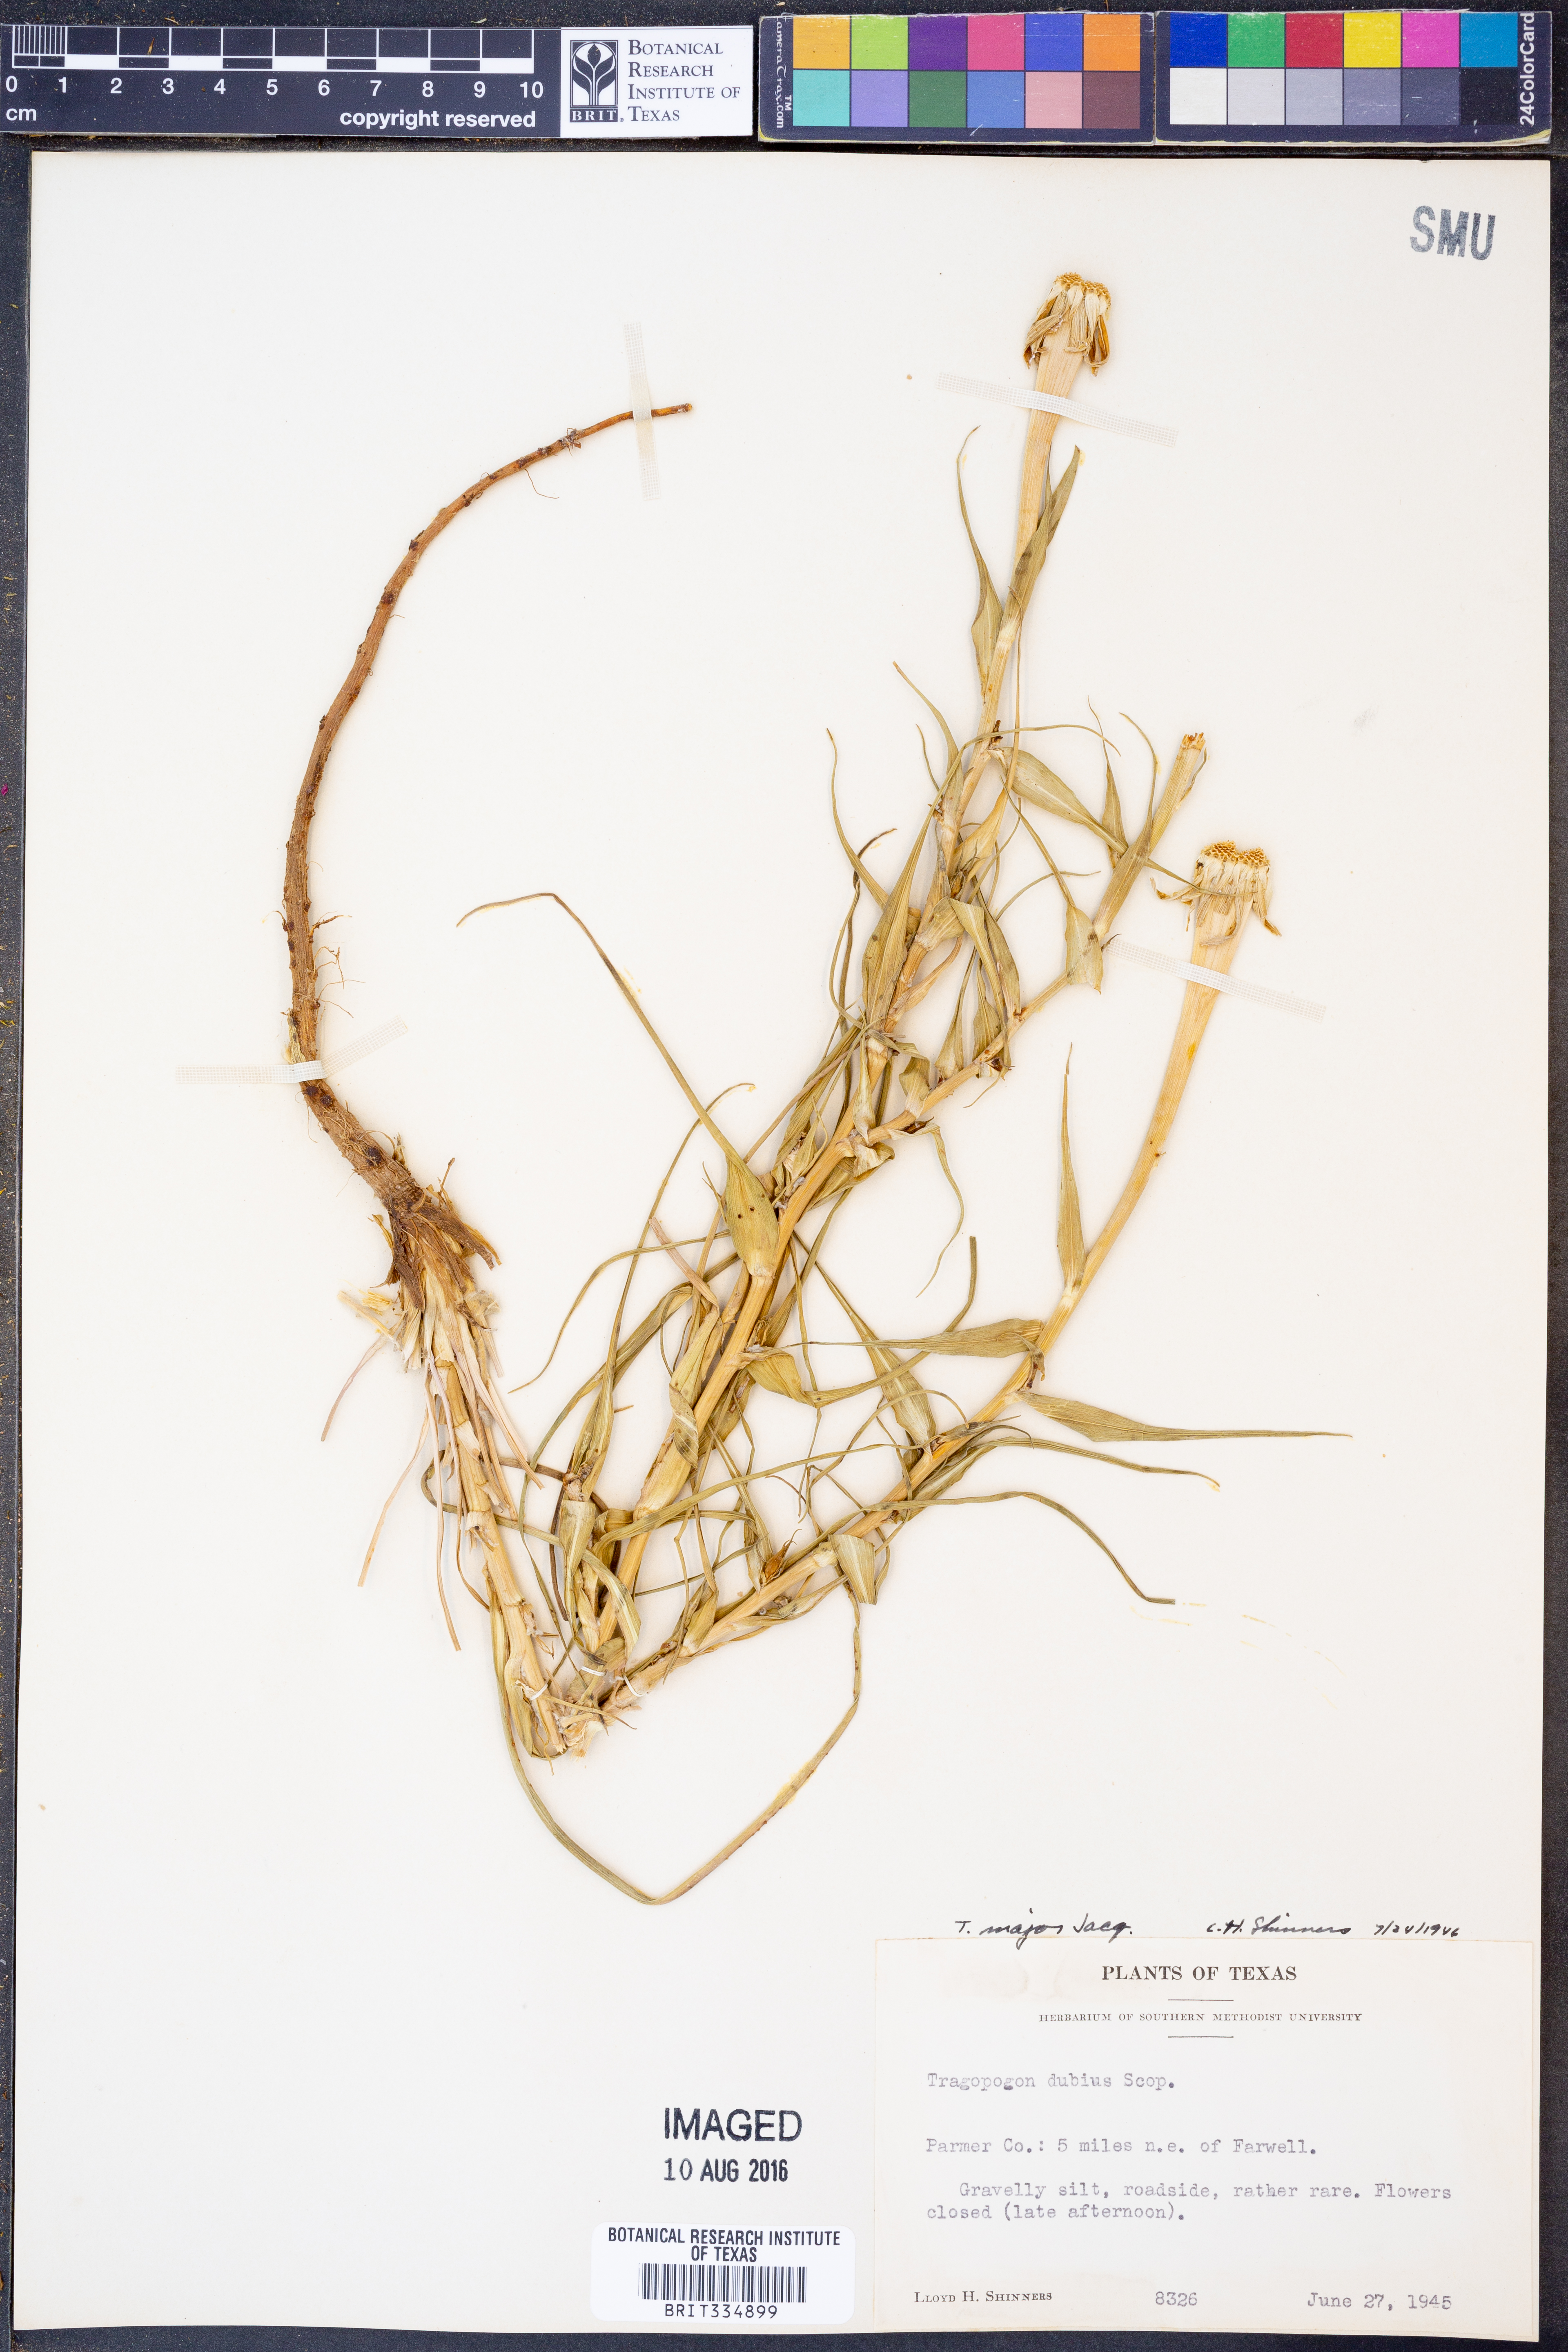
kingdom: Plantae
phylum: Tracheophyta
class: Magnoliopsida
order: Asterales
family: Asteraceae
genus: Tragopogon
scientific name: Tragopogon dubius
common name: Yellow salsify
